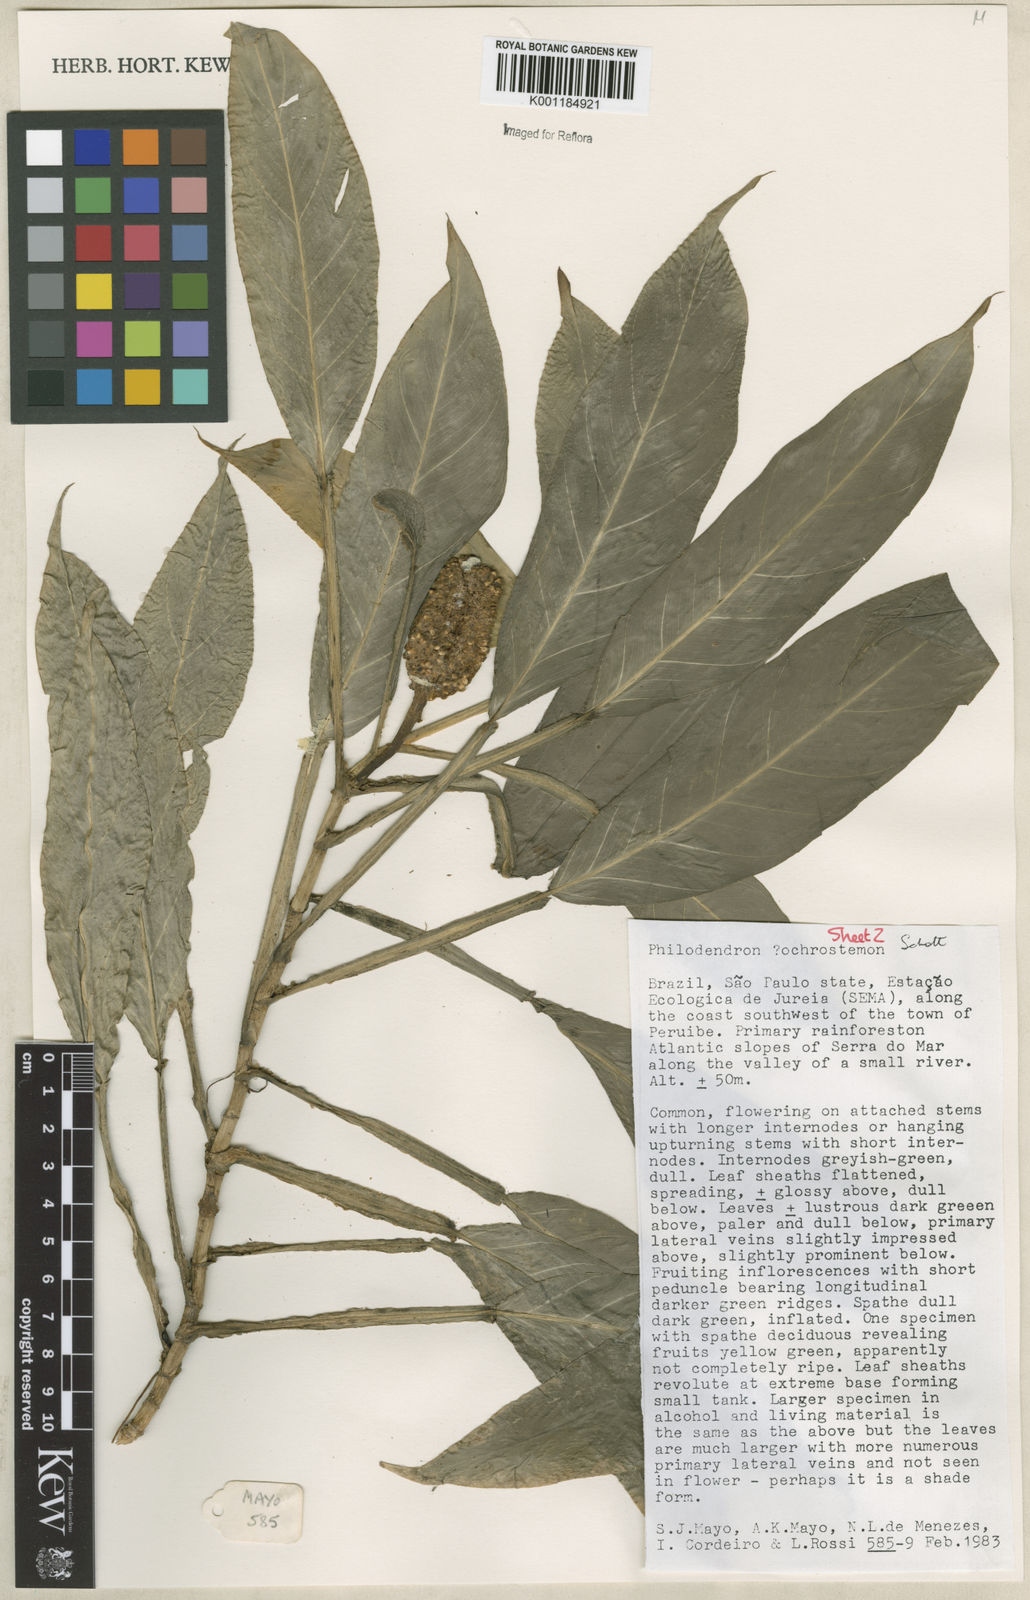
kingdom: Plantae
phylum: Tracheophyta
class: Liliopsida
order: Alismatales
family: Araceae
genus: Philodendron
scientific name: Philodendron ochrostemon
